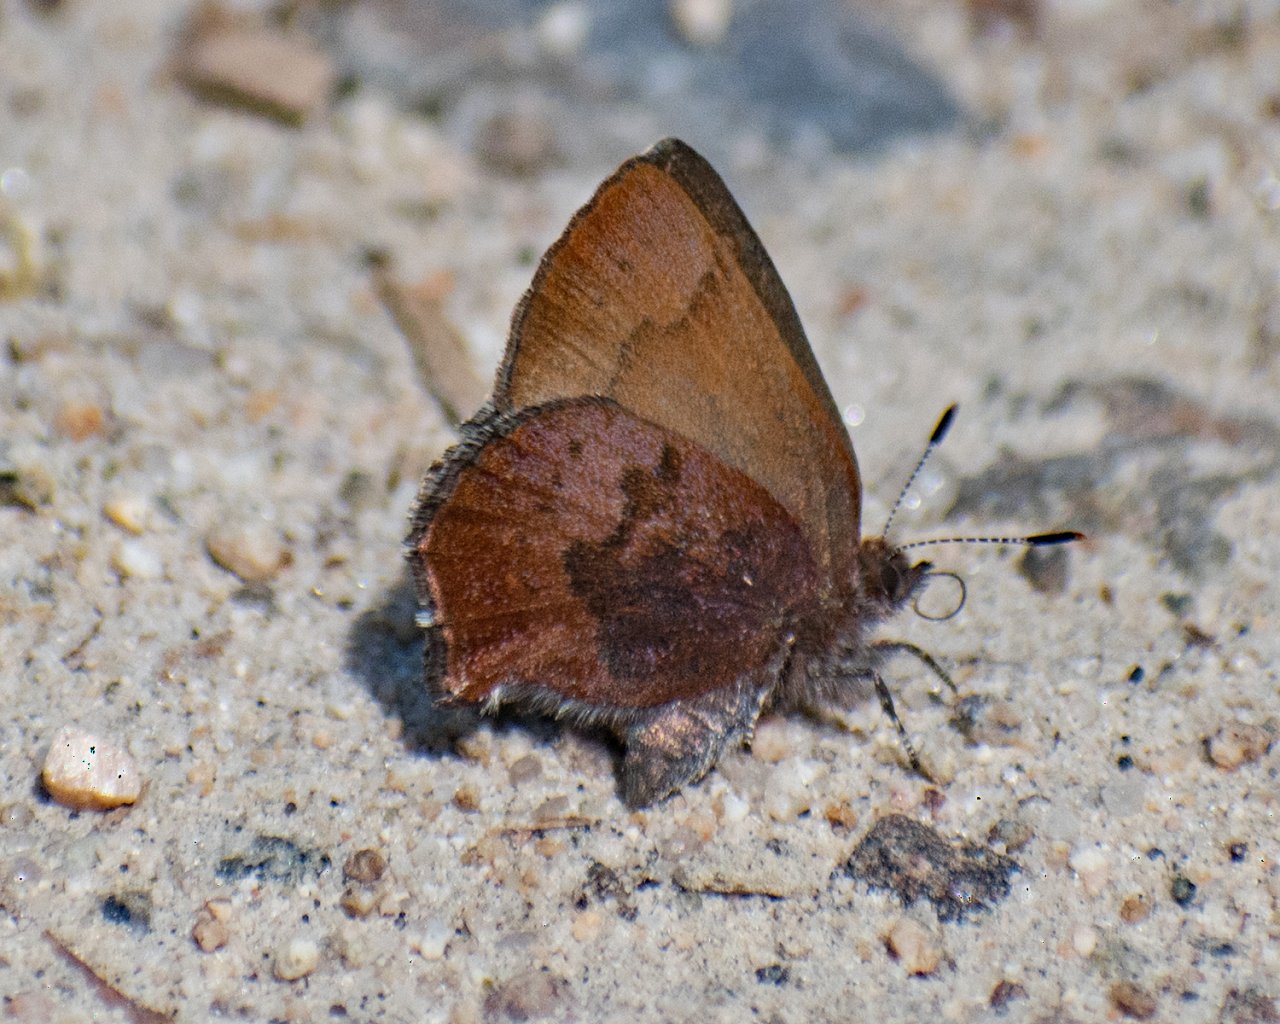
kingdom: Animalia
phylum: Arthropoda
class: Insecta
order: Lepidoptera
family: Lycaenidae
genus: Incisalia
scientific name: Incisalia irioides
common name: Brown Elfin
